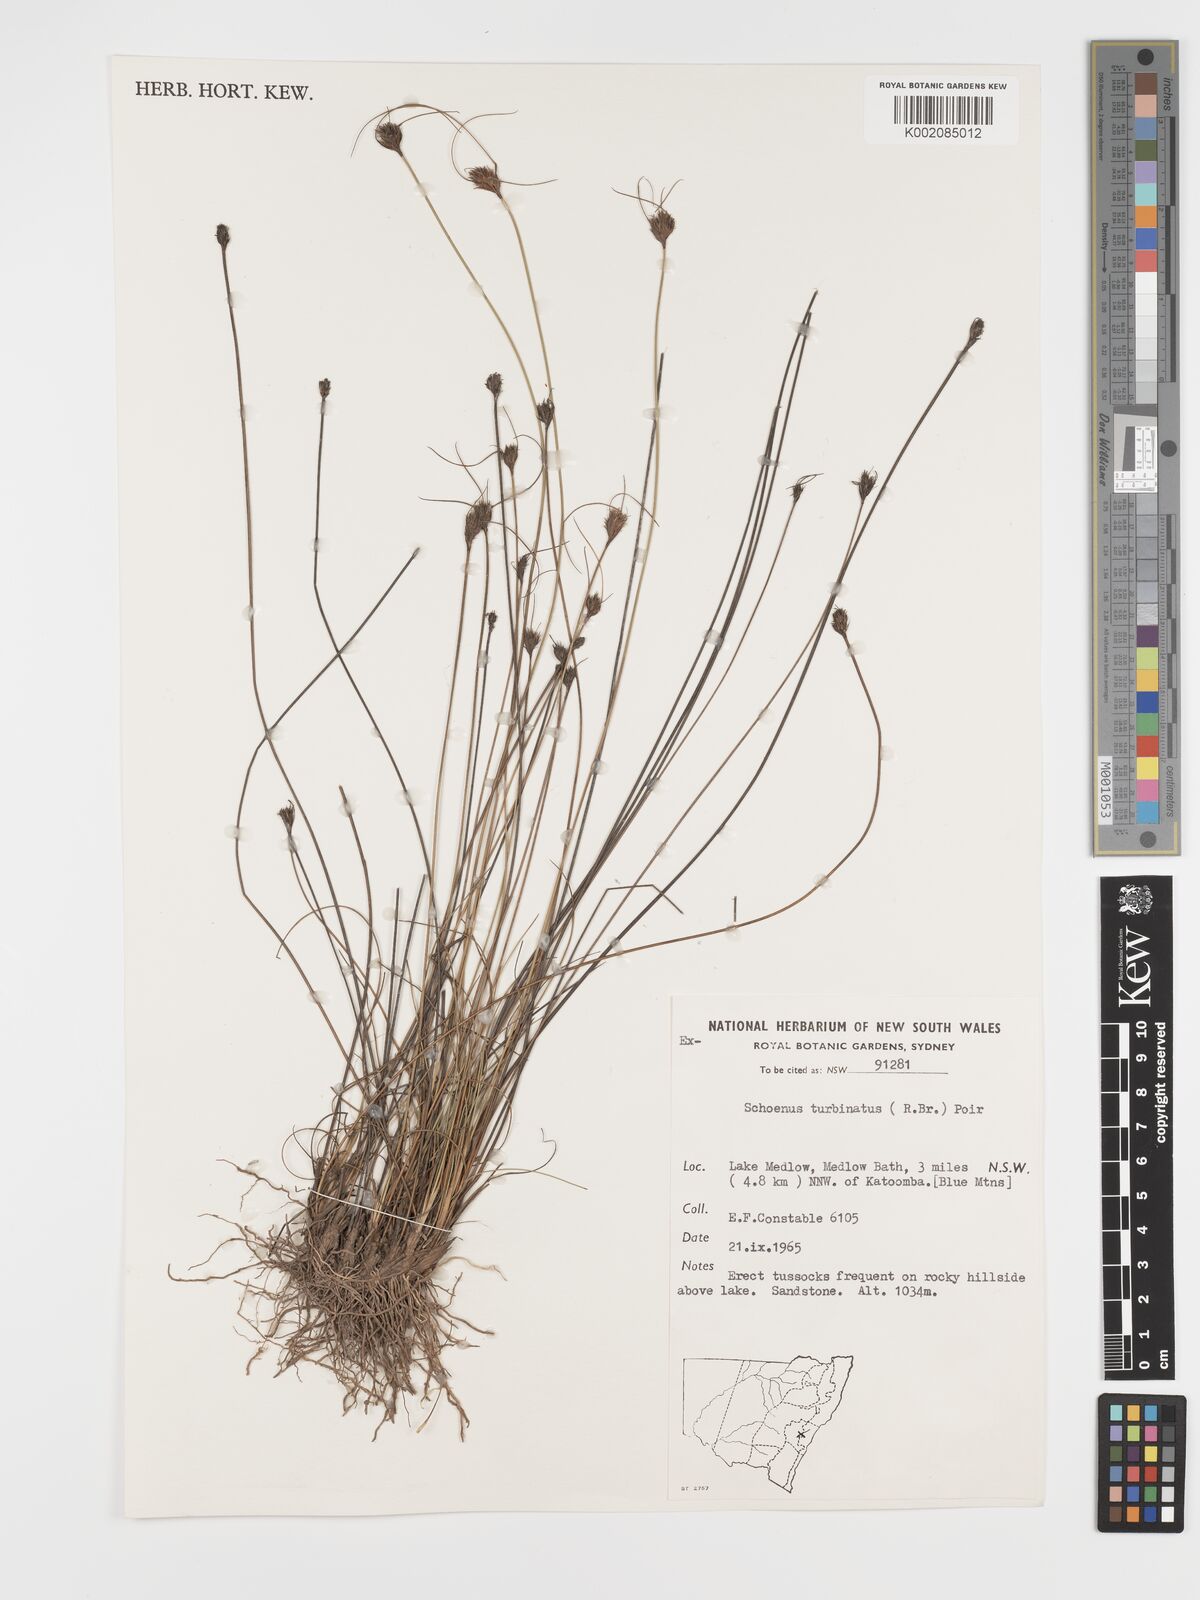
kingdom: Plantae
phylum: Tracheophyta
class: Liliopsida
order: Poales
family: Cyperaceae
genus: Schoenus
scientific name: Schoenus turbinatus
